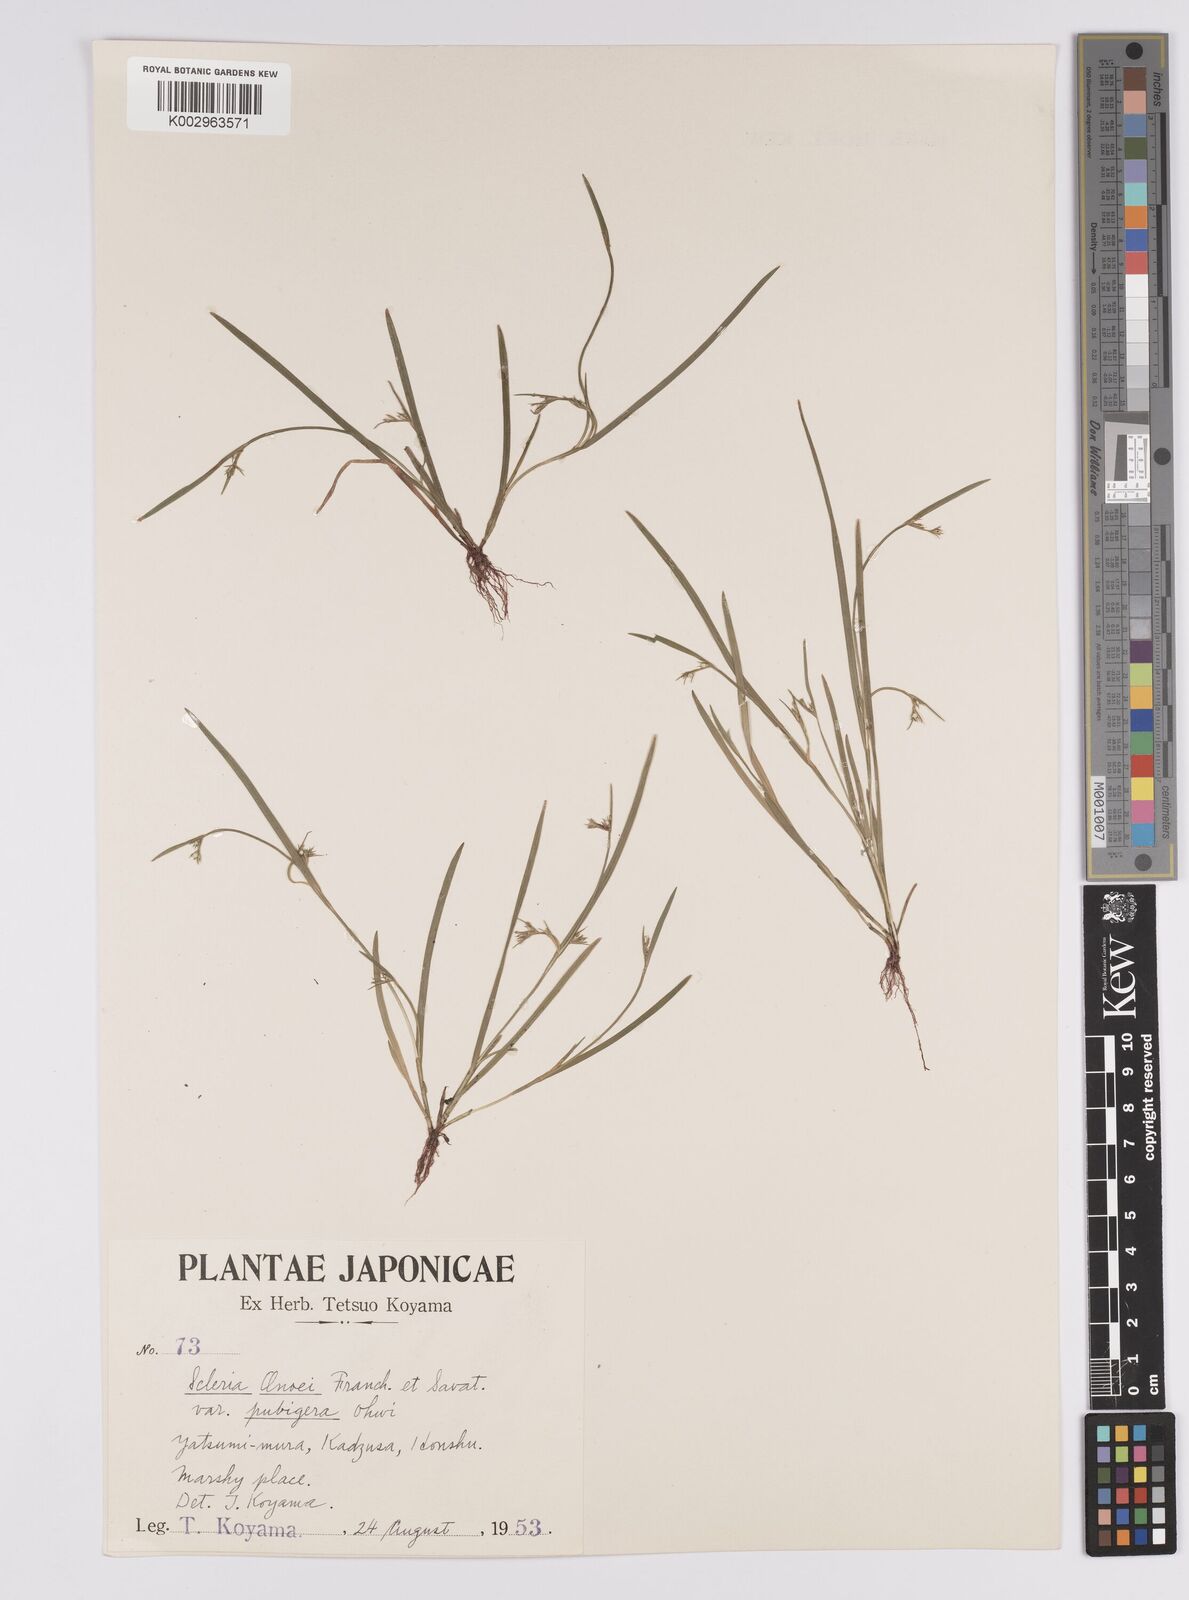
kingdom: Plantae
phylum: Tracheophyta
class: Liliopsida
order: Poales
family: Cyperaceae
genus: Scleria
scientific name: Scleria rugosa
